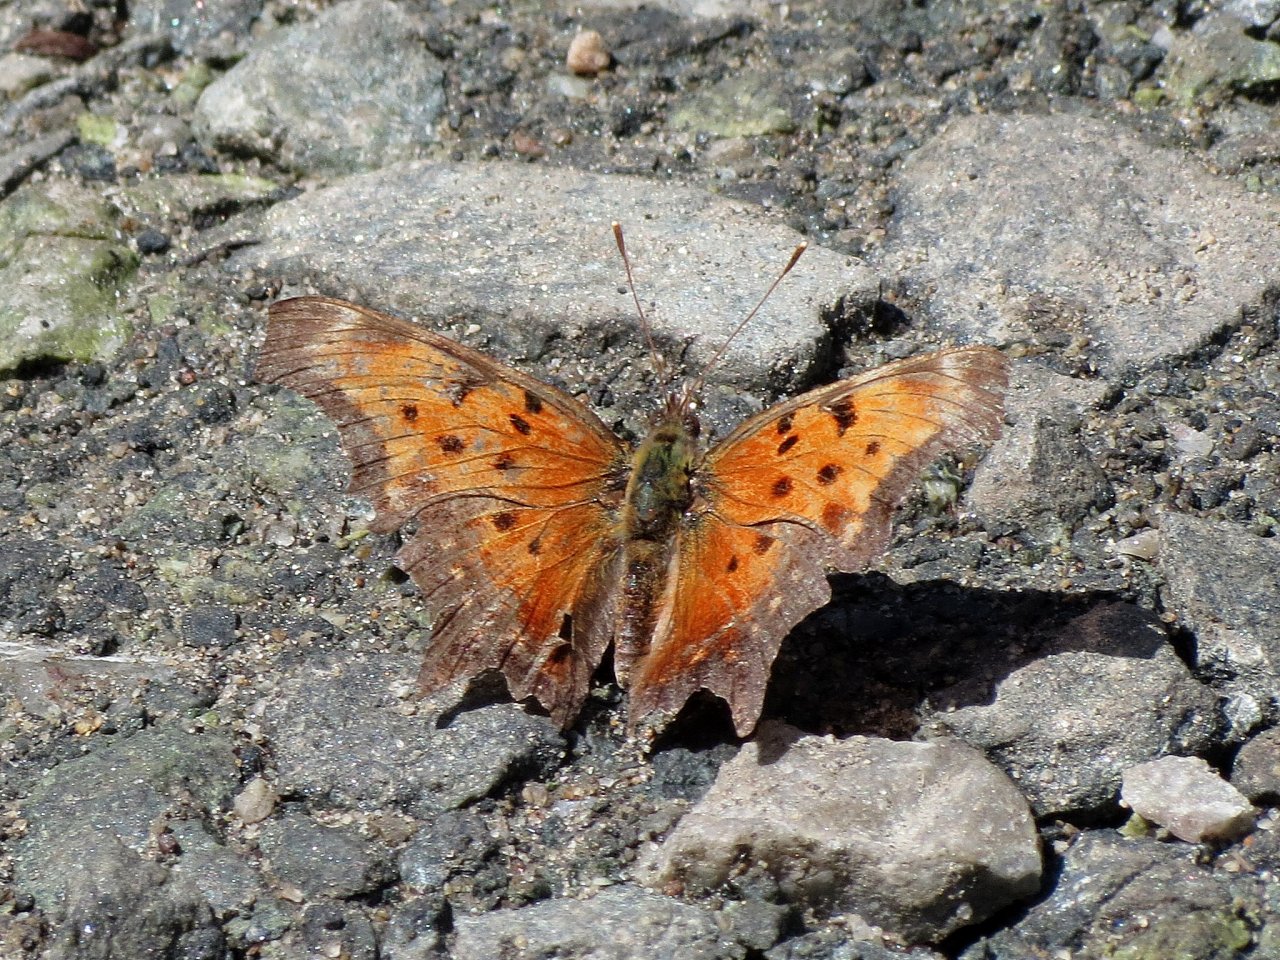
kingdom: Animalia
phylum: Arthropoda
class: Insecta
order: Lepidoptera
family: Nymphalidae
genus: Polygonia
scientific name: Polygonia progne
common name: Gray Comma
